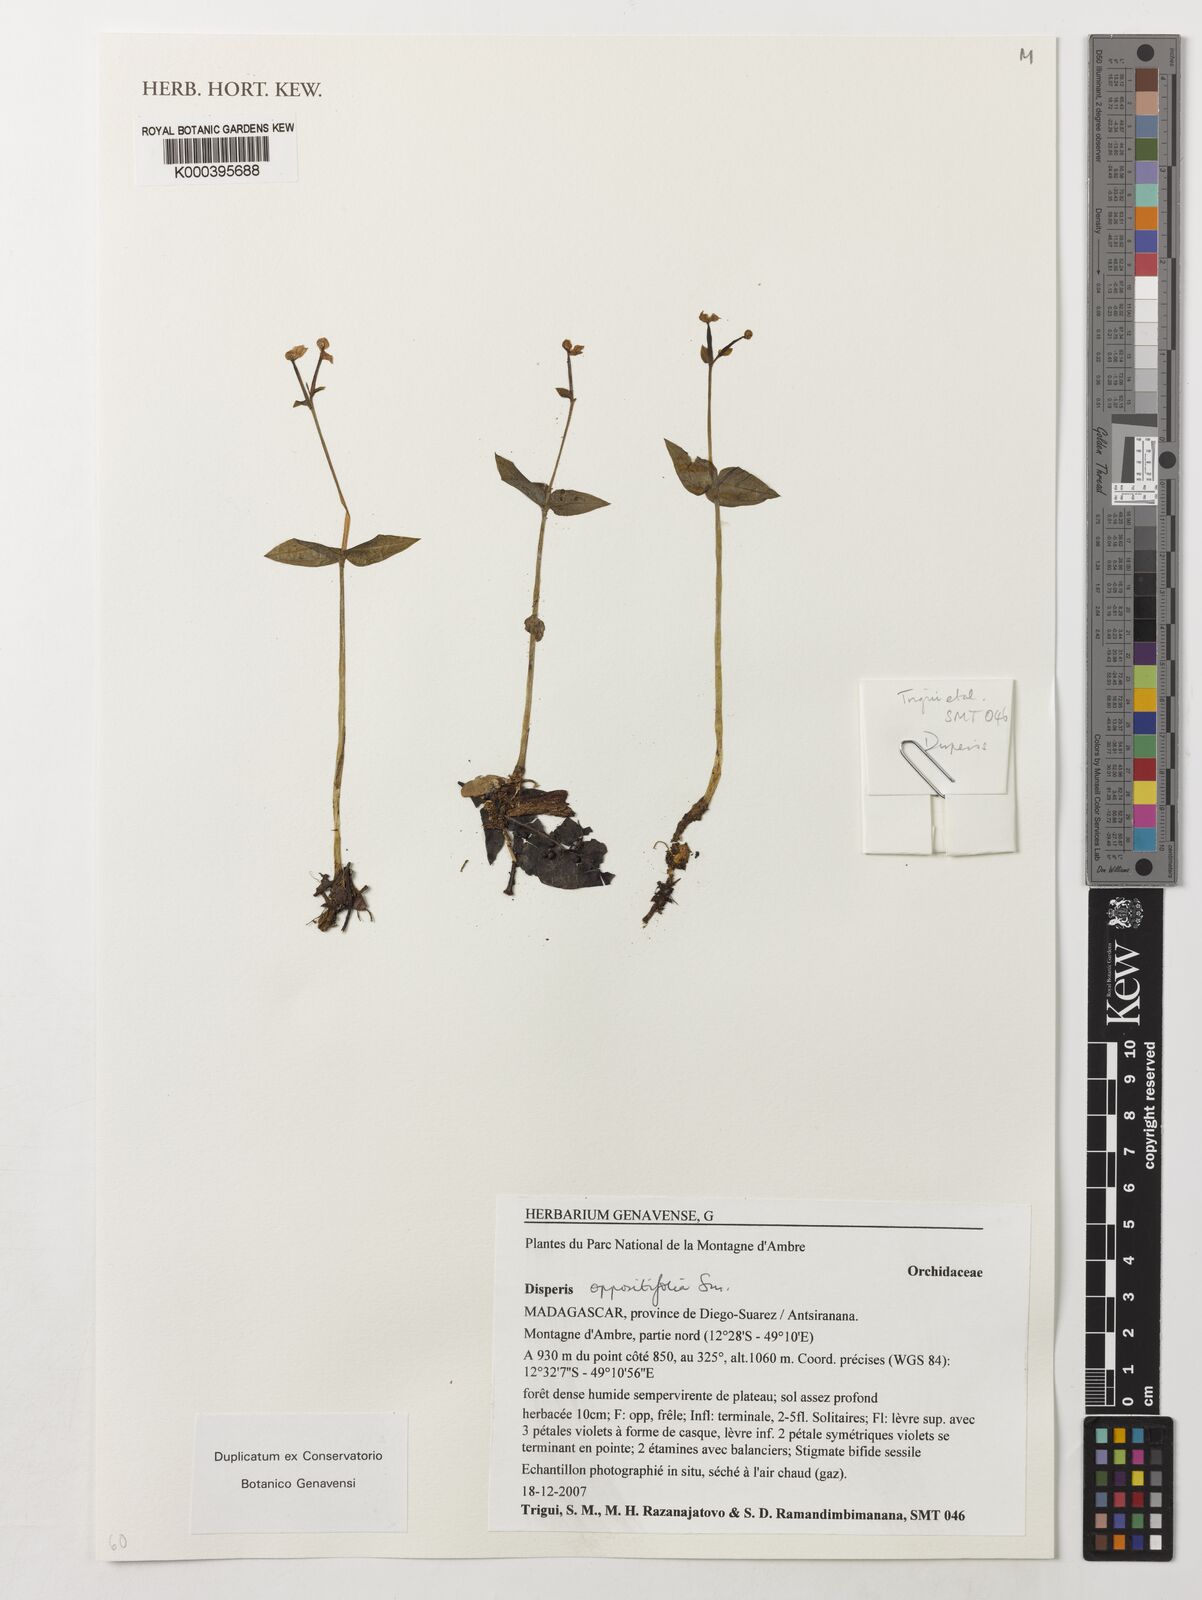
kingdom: Plantae
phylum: Tracheophyta
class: Liliopsida
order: Asparagales
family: Orchidaceae
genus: Disperis
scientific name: Disperis oppositifolia
